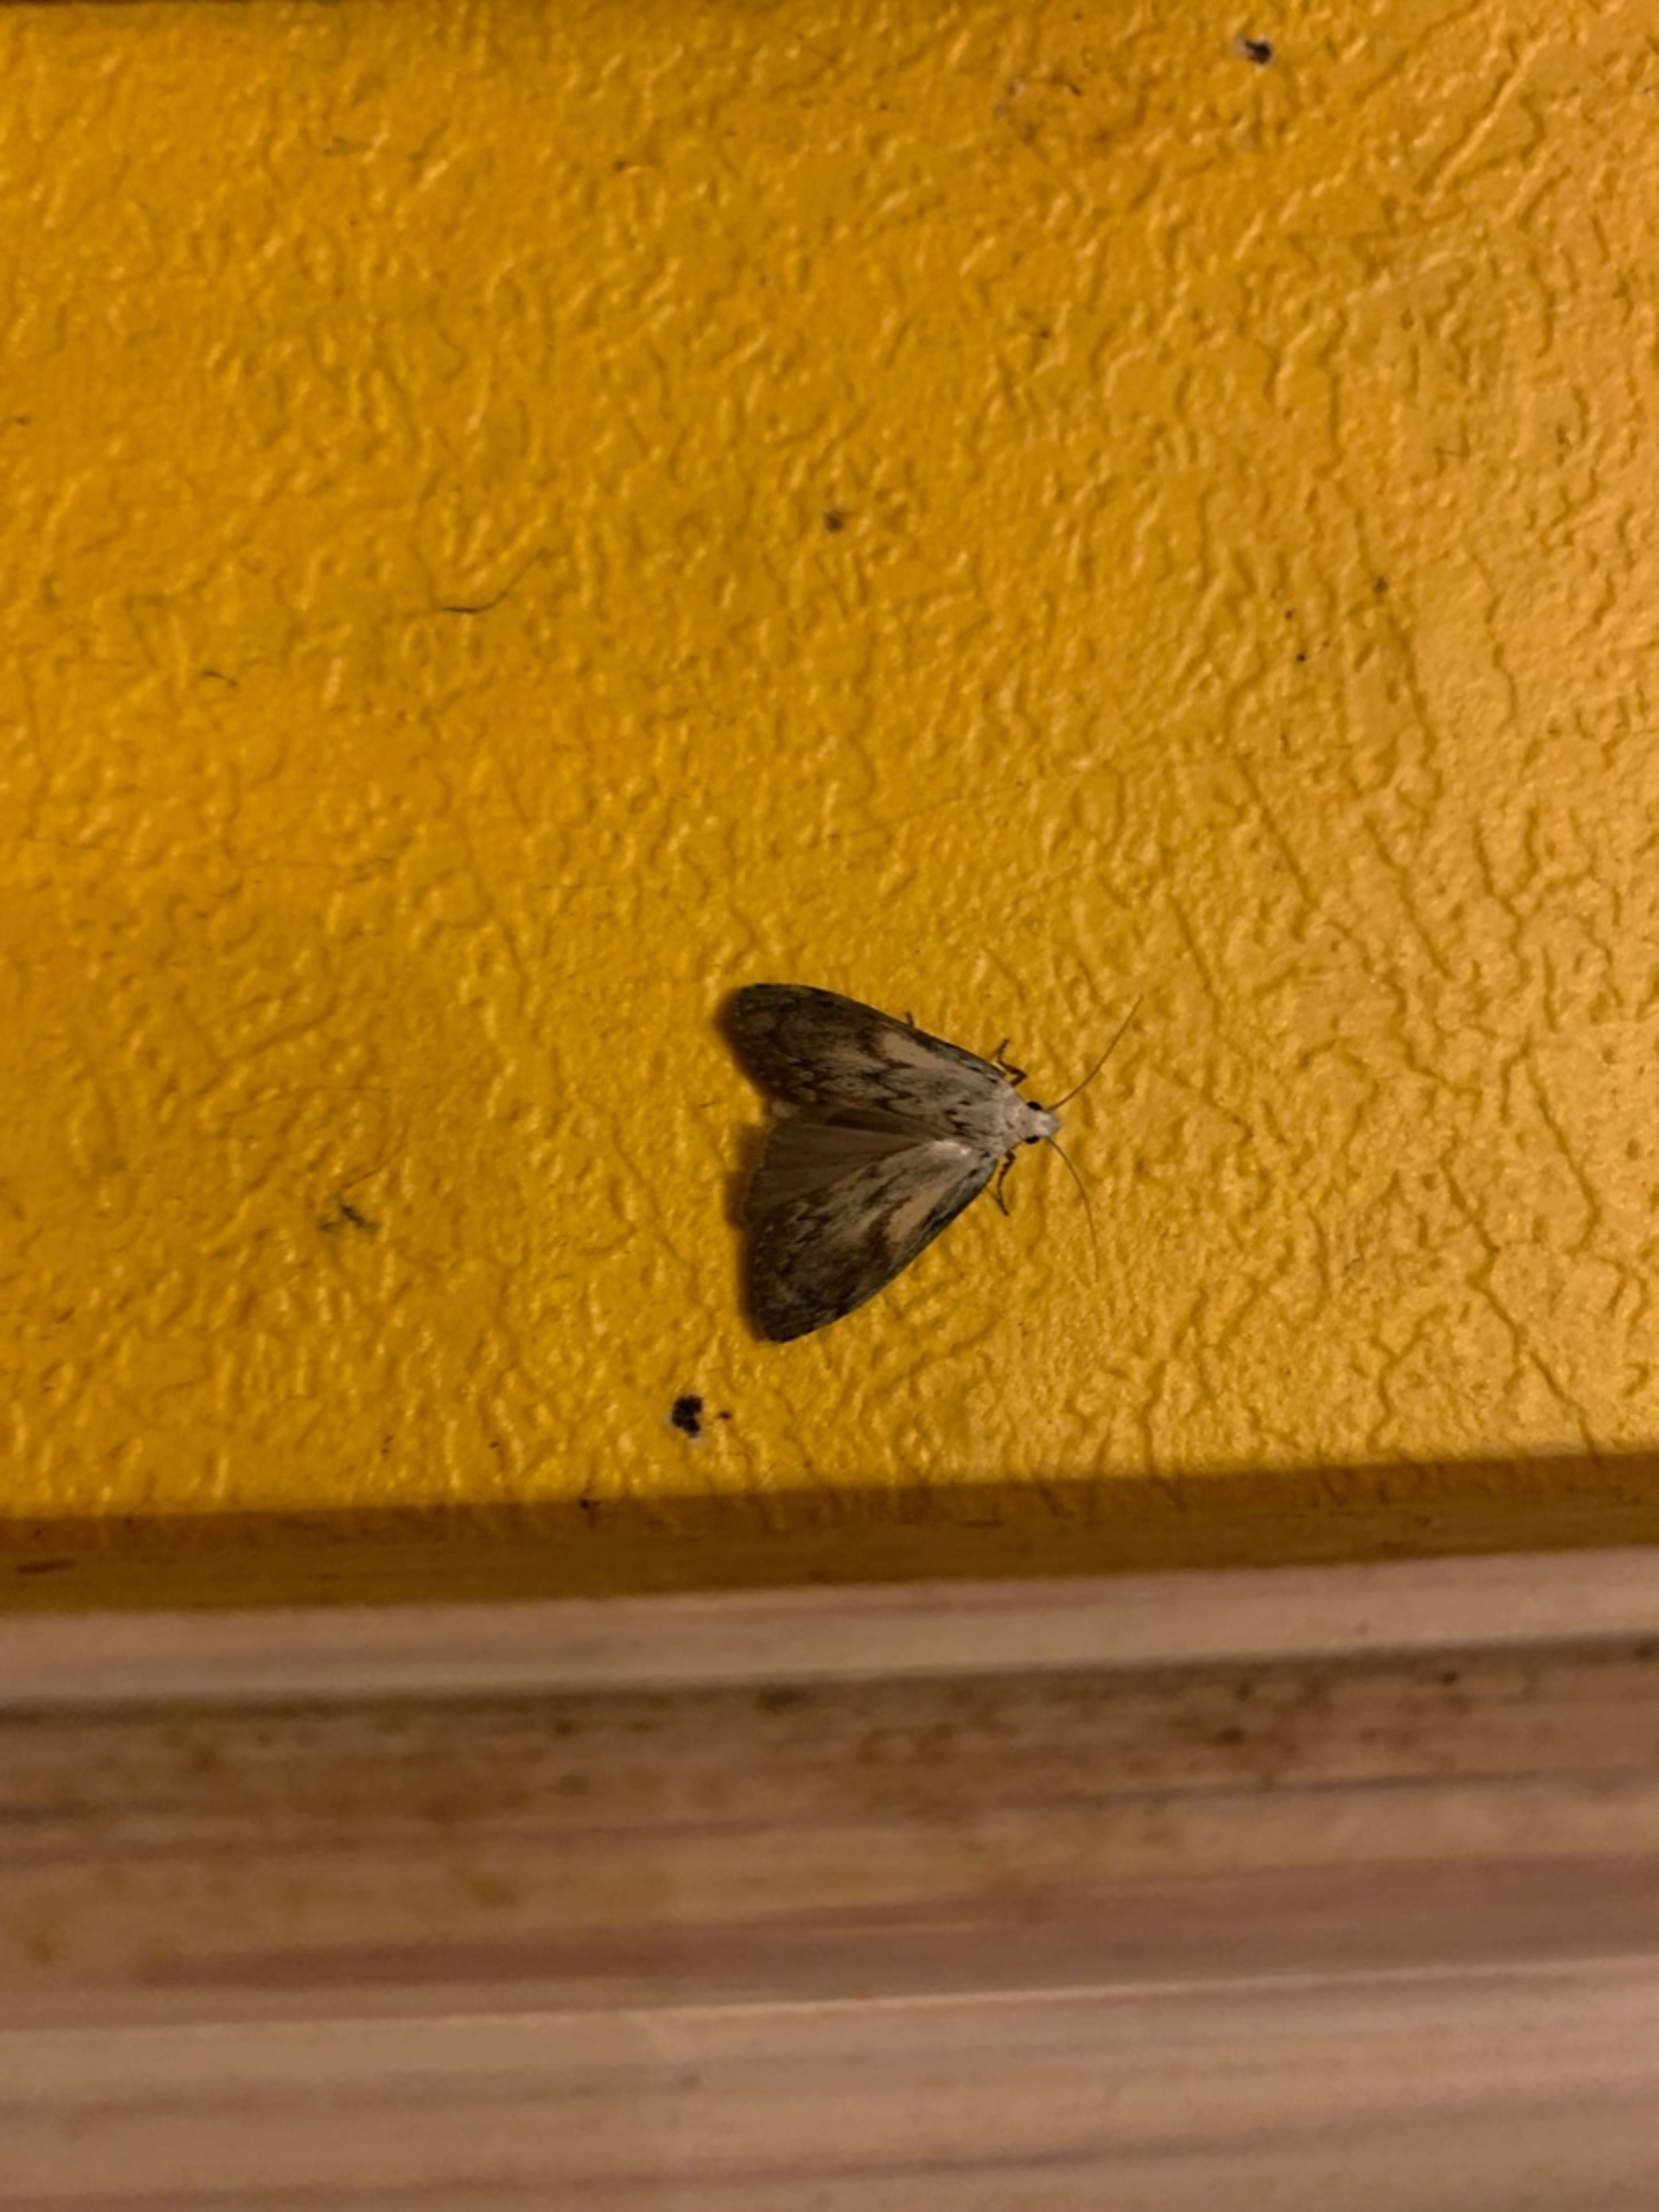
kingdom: Animalia
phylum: Arthropoda
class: Insecta
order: Lepidoptera
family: Pyralidae
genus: Aphomia
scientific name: Aphomia sociella
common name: Humlevoksmøl
